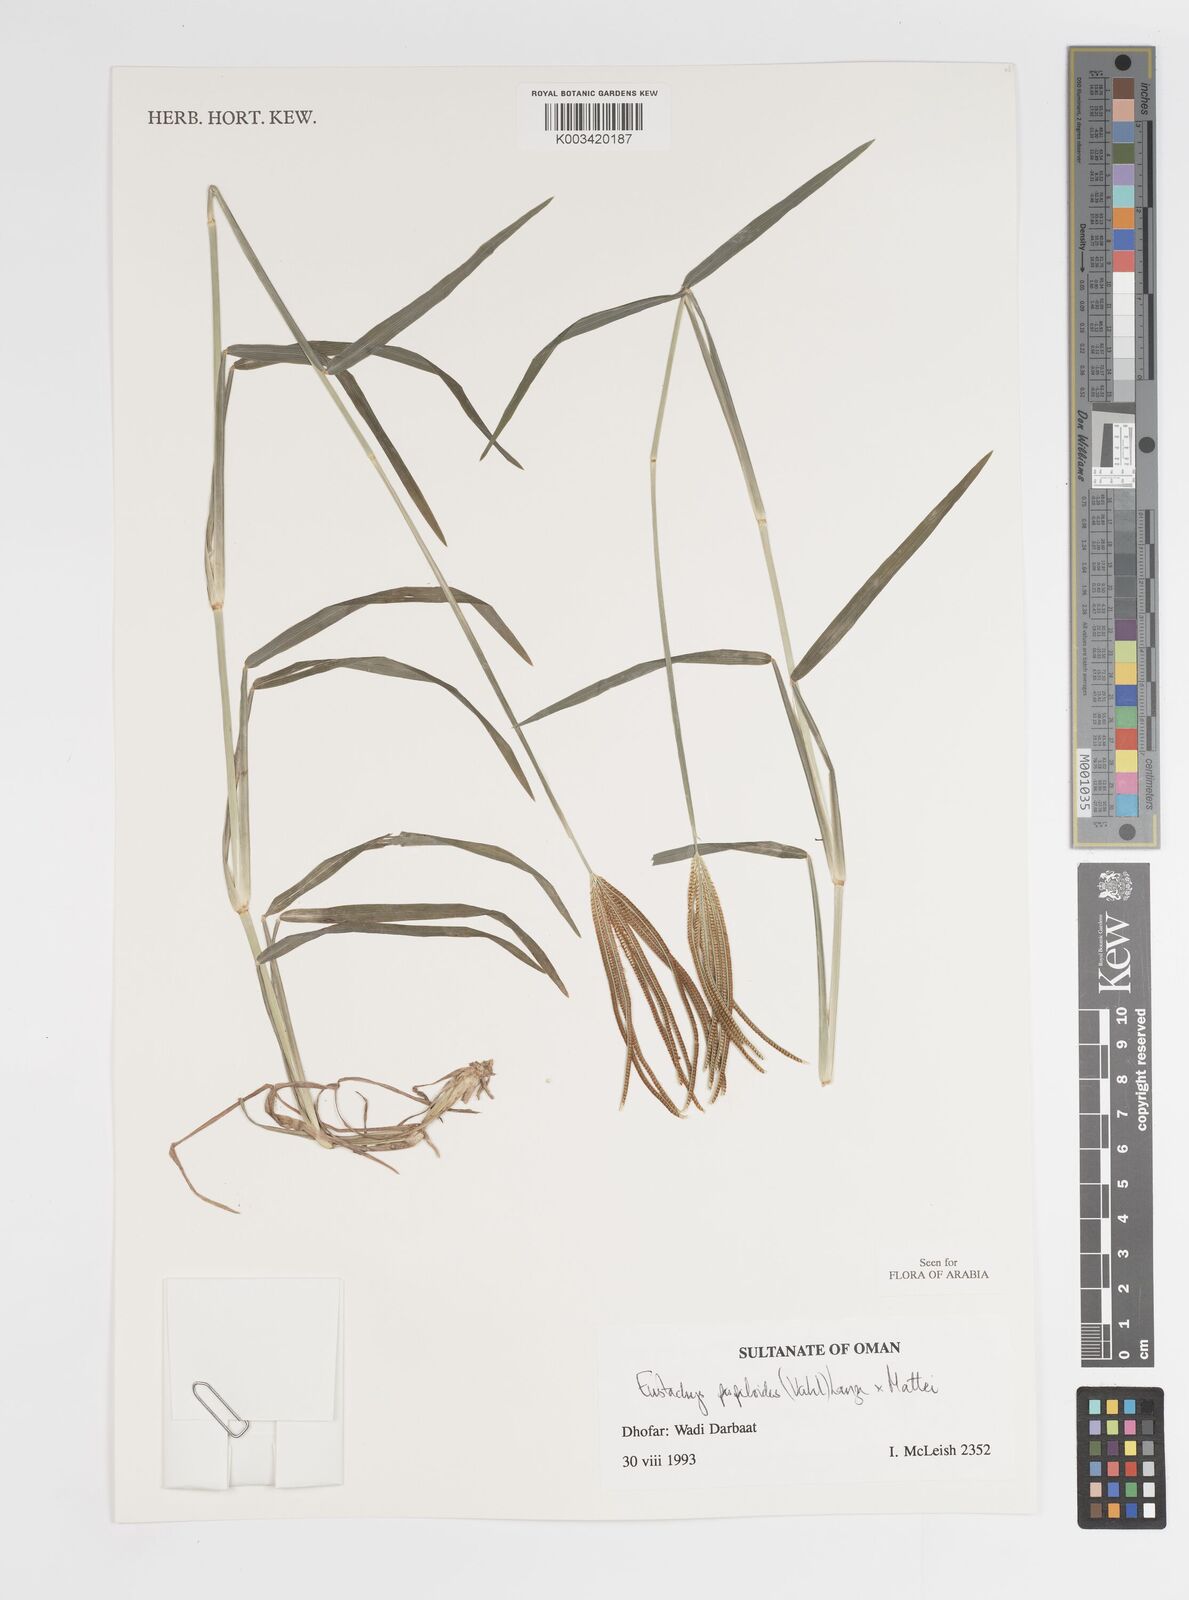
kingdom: Plantae
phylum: Tracheophyta
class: Liliopsida
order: Poales
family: Poaceae
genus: Eustachys
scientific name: Eustachys paspaloides
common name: Caribbean fingergrass
